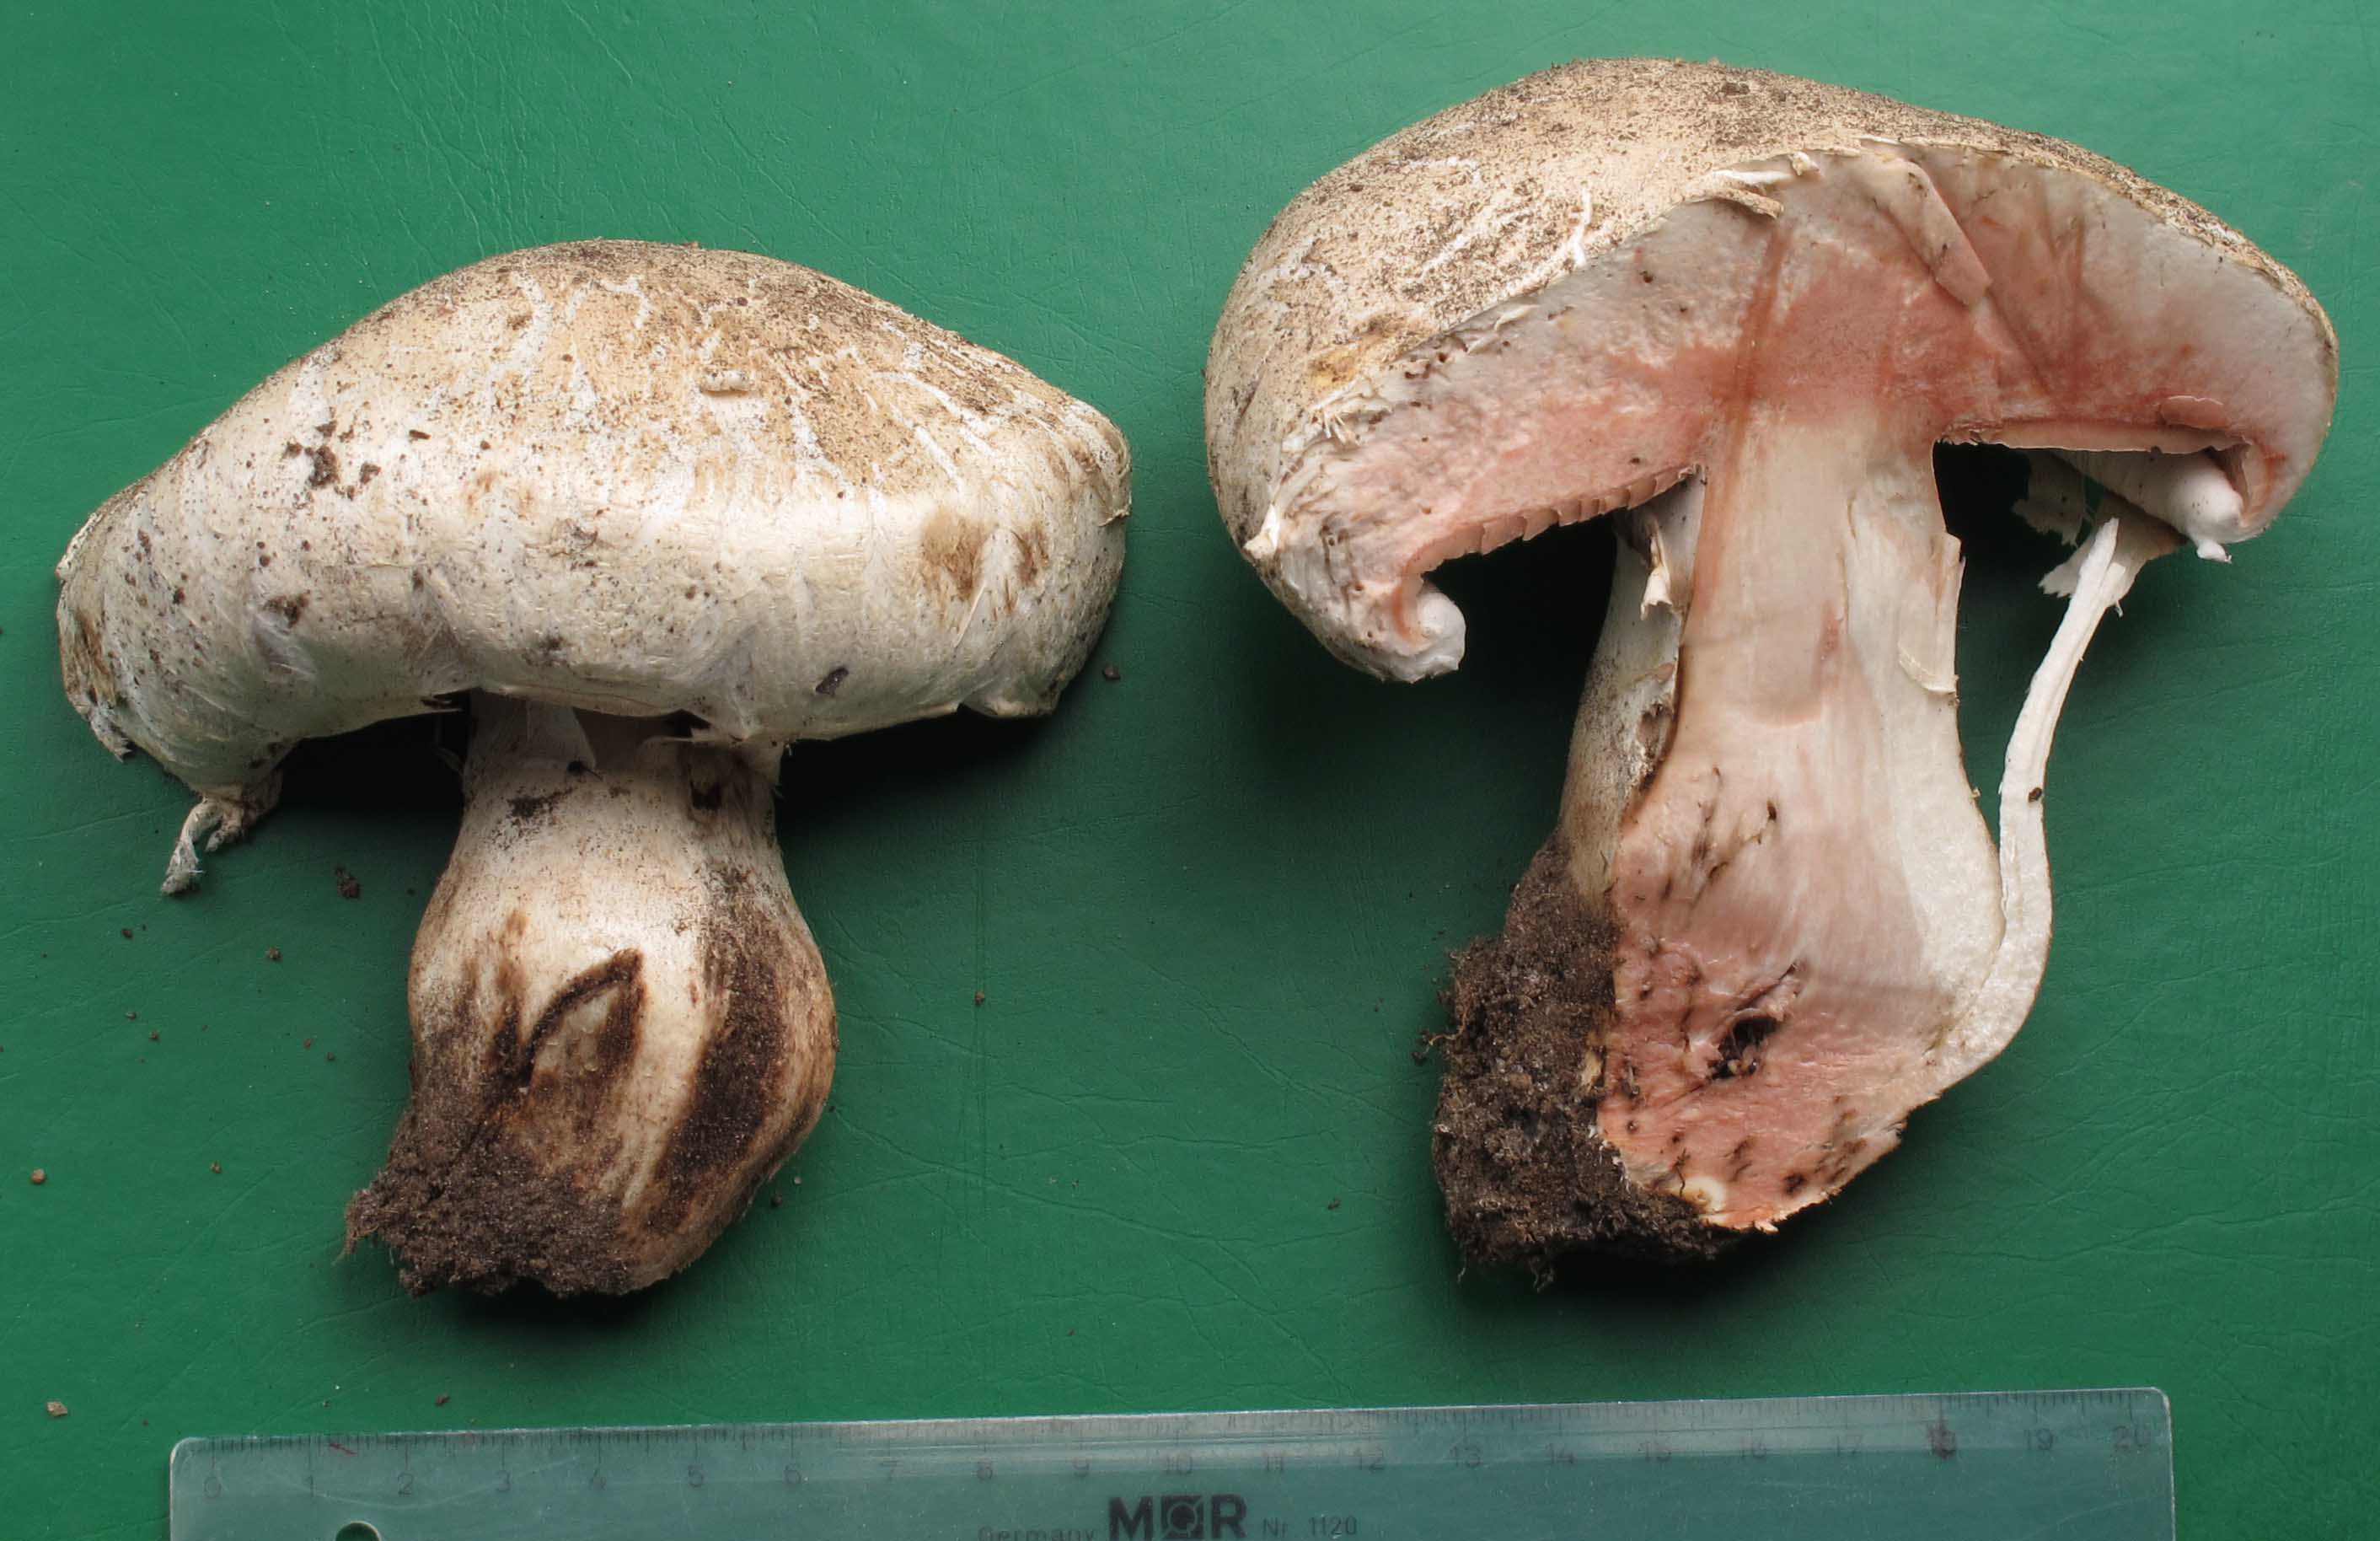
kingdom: Fungi
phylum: Basidiomycota
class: Agaricomycetes
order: Agaricales
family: Agaricaceae
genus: Agaricus
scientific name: Agaricus bernardii
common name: strandengs-champignon
